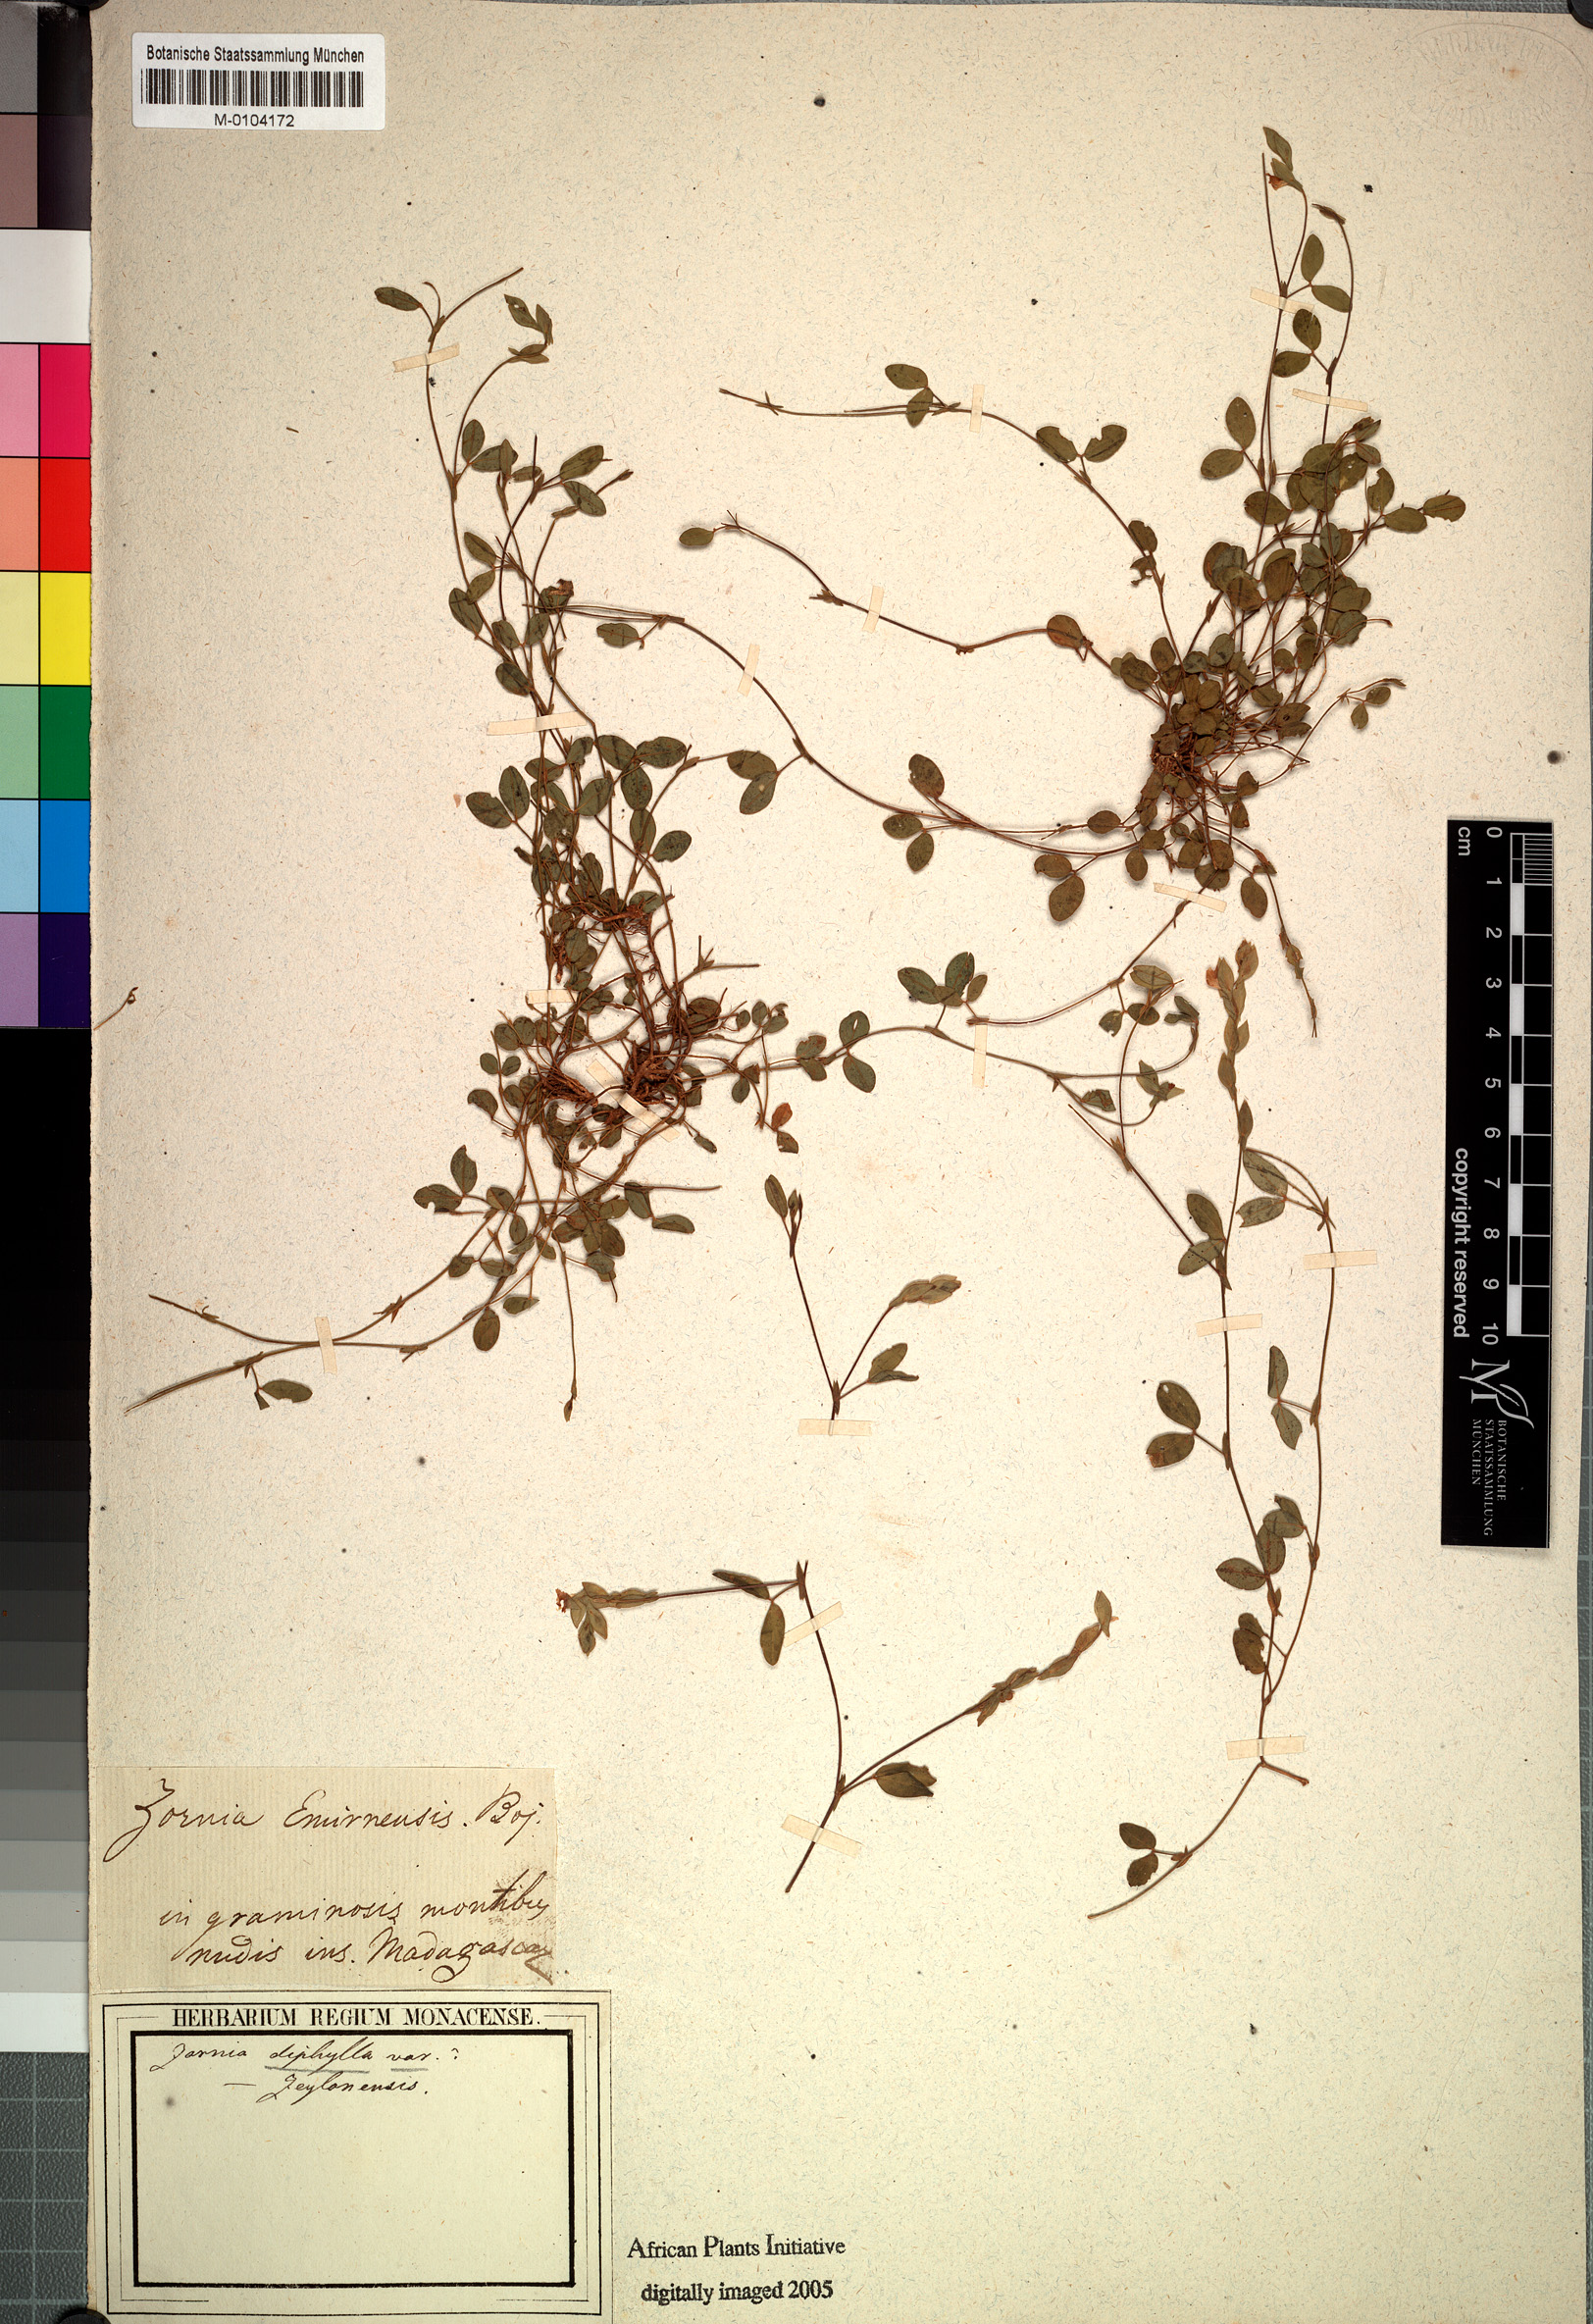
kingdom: Plantae
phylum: Tracheophyta
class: Magnoliopsida
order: Fabales
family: Fabaceae
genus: Zornia
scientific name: Zornia diphylla
